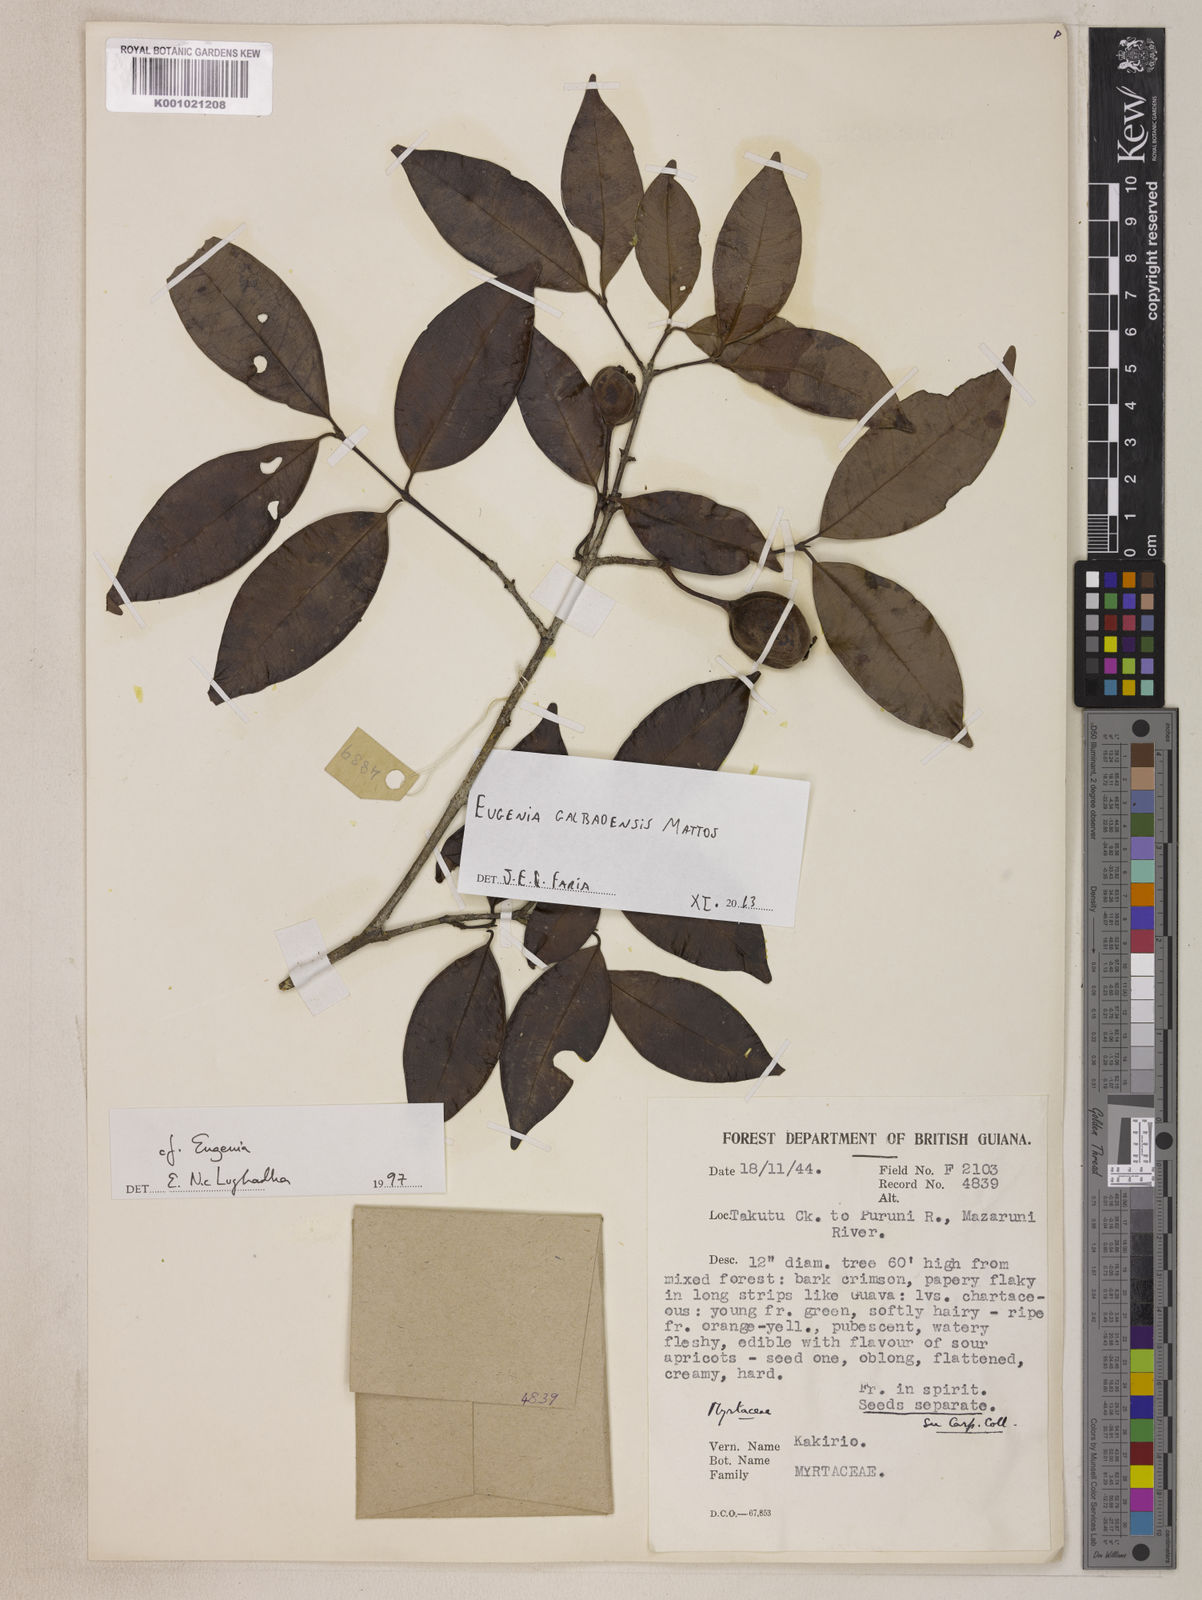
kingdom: Plantae
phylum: Tracheophyta
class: Magnoliopsida
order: Myrtales
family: Myrtaceae
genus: Eugenia
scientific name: Eugenia galbaoensis
